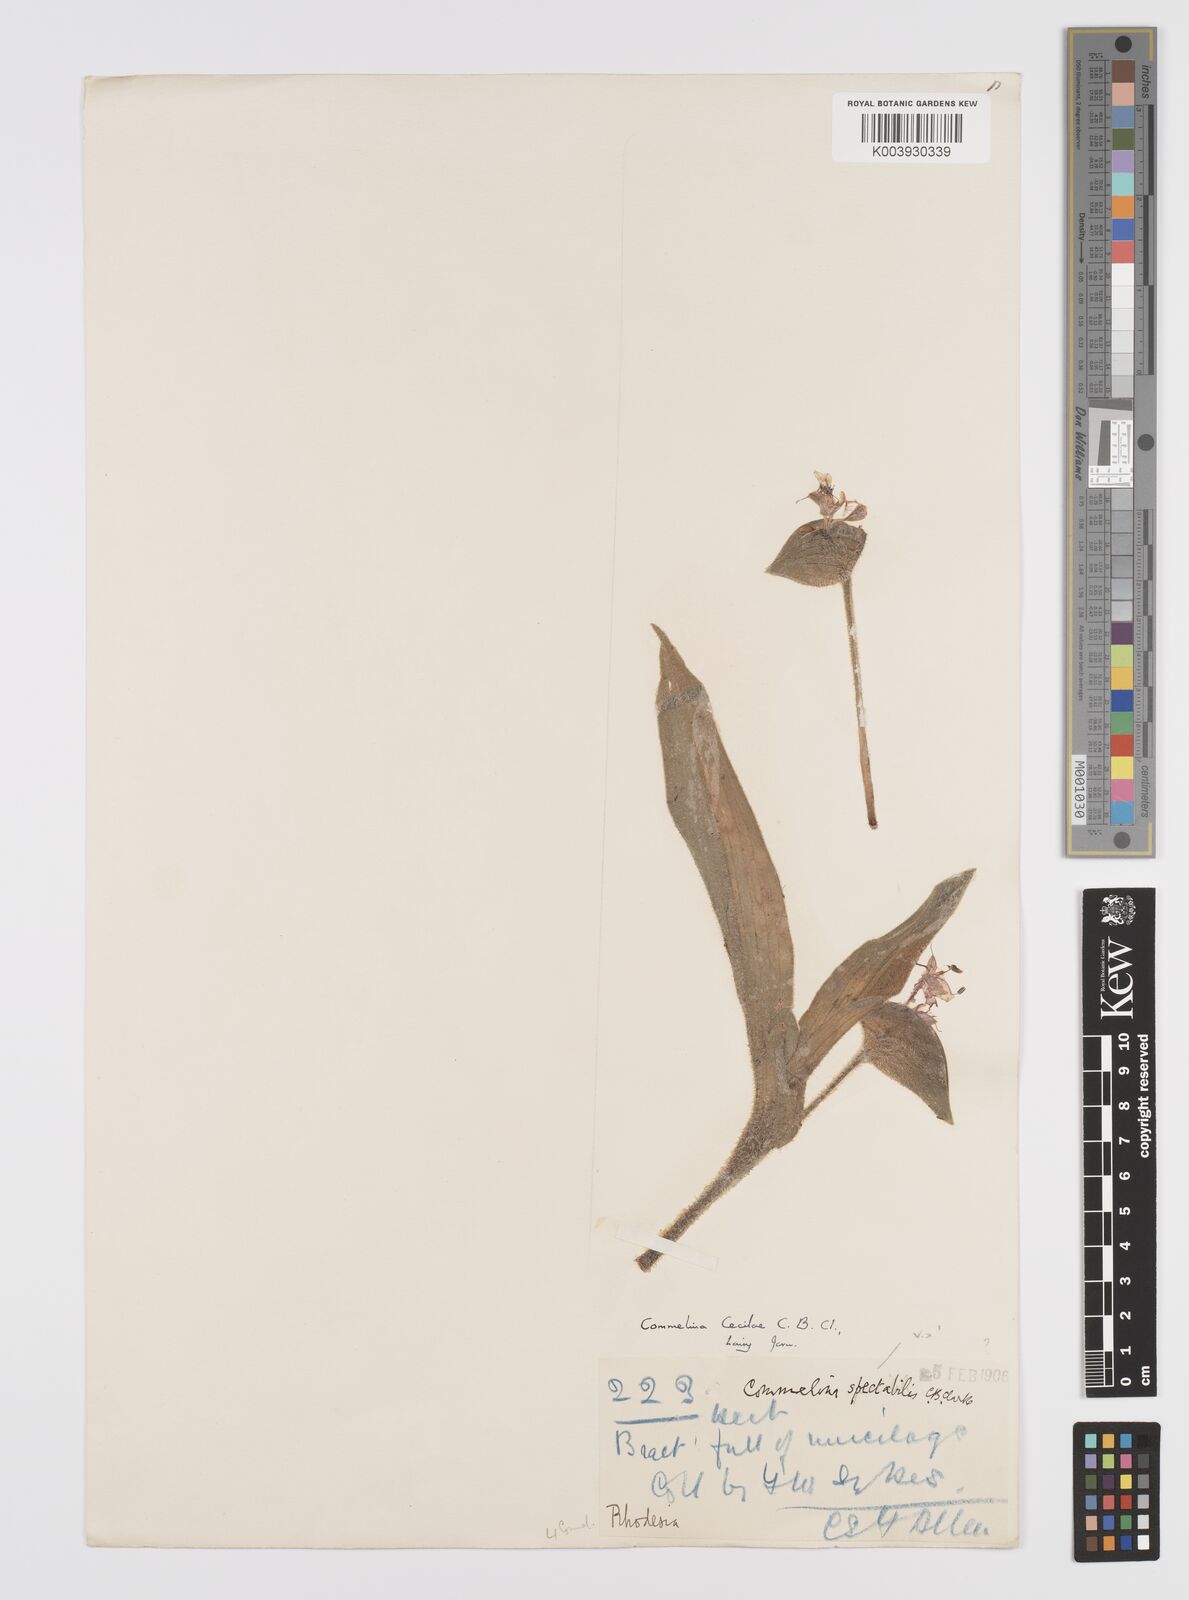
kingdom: Plantae
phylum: Tracheophyta
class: Liliopsida
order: Commelinales
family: Commelinaceae
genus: Commelina
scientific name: Commelina cecilae
